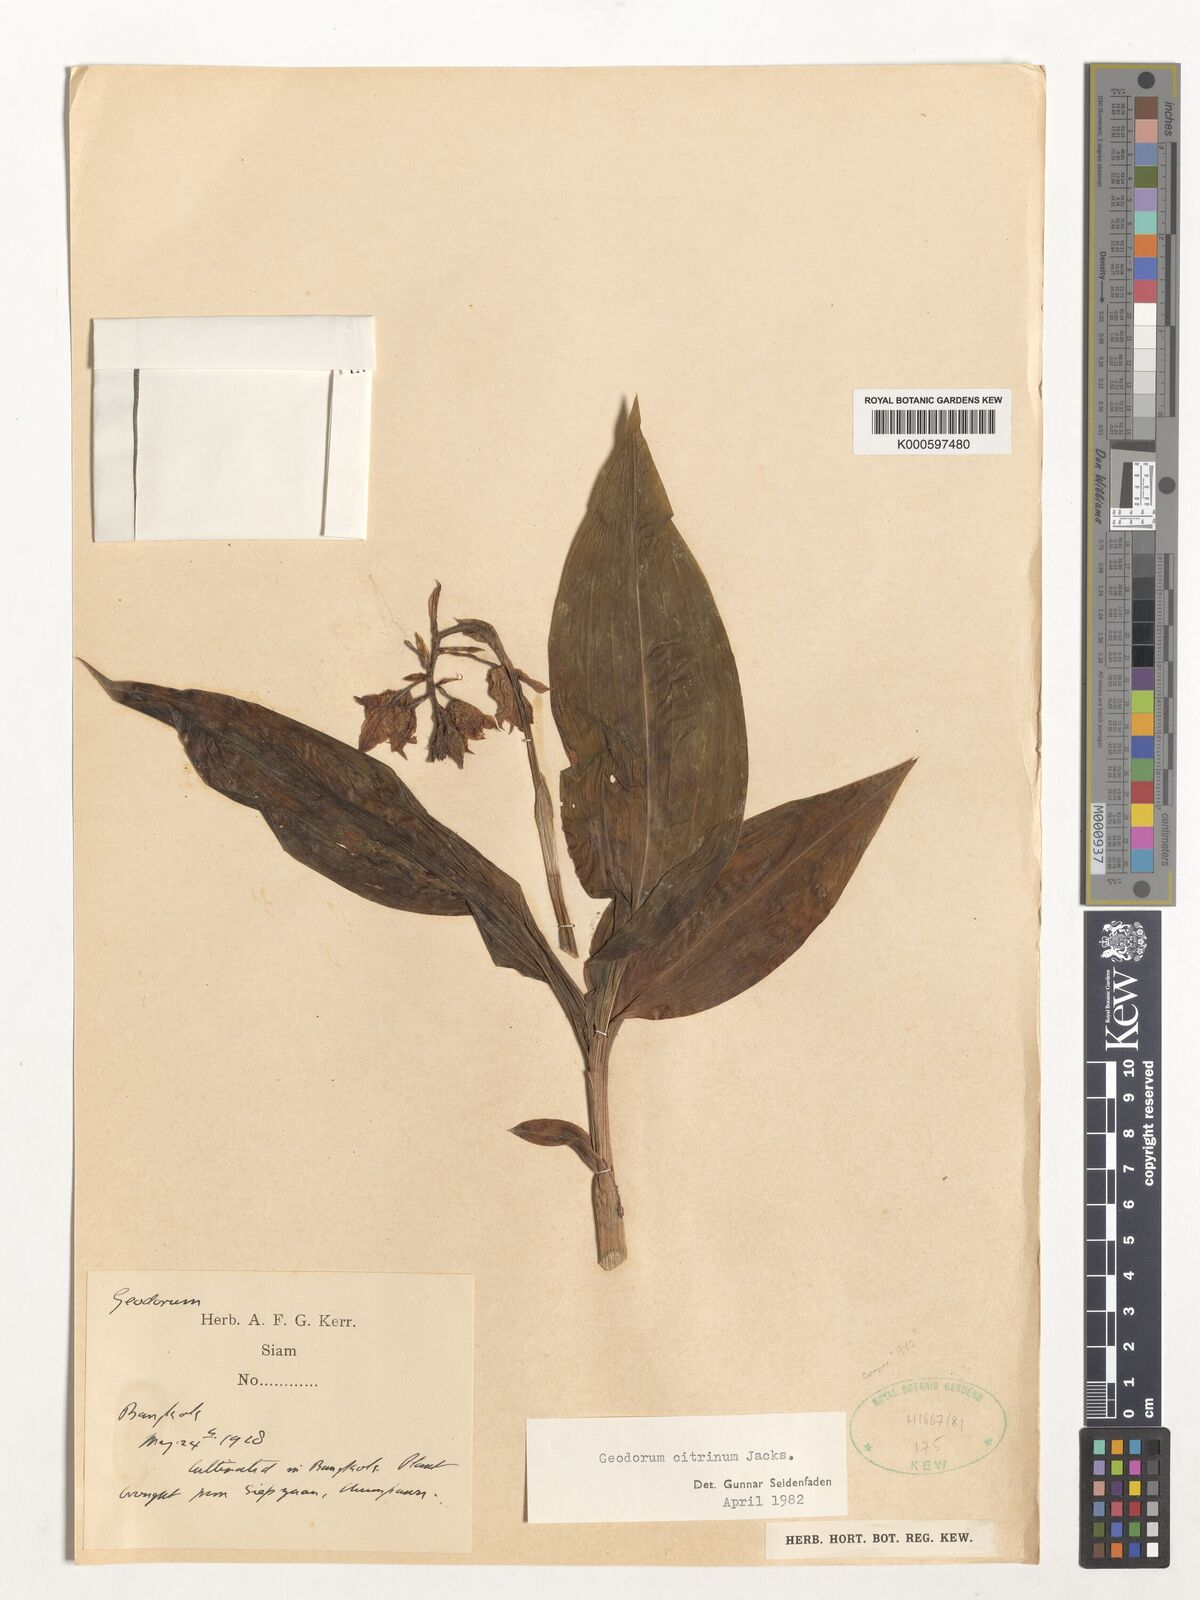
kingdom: Plantae
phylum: Tracheophyta
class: Liliopsida
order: Asparagales
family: Orchidaceae
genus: Geodorum
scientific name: Geodorum
